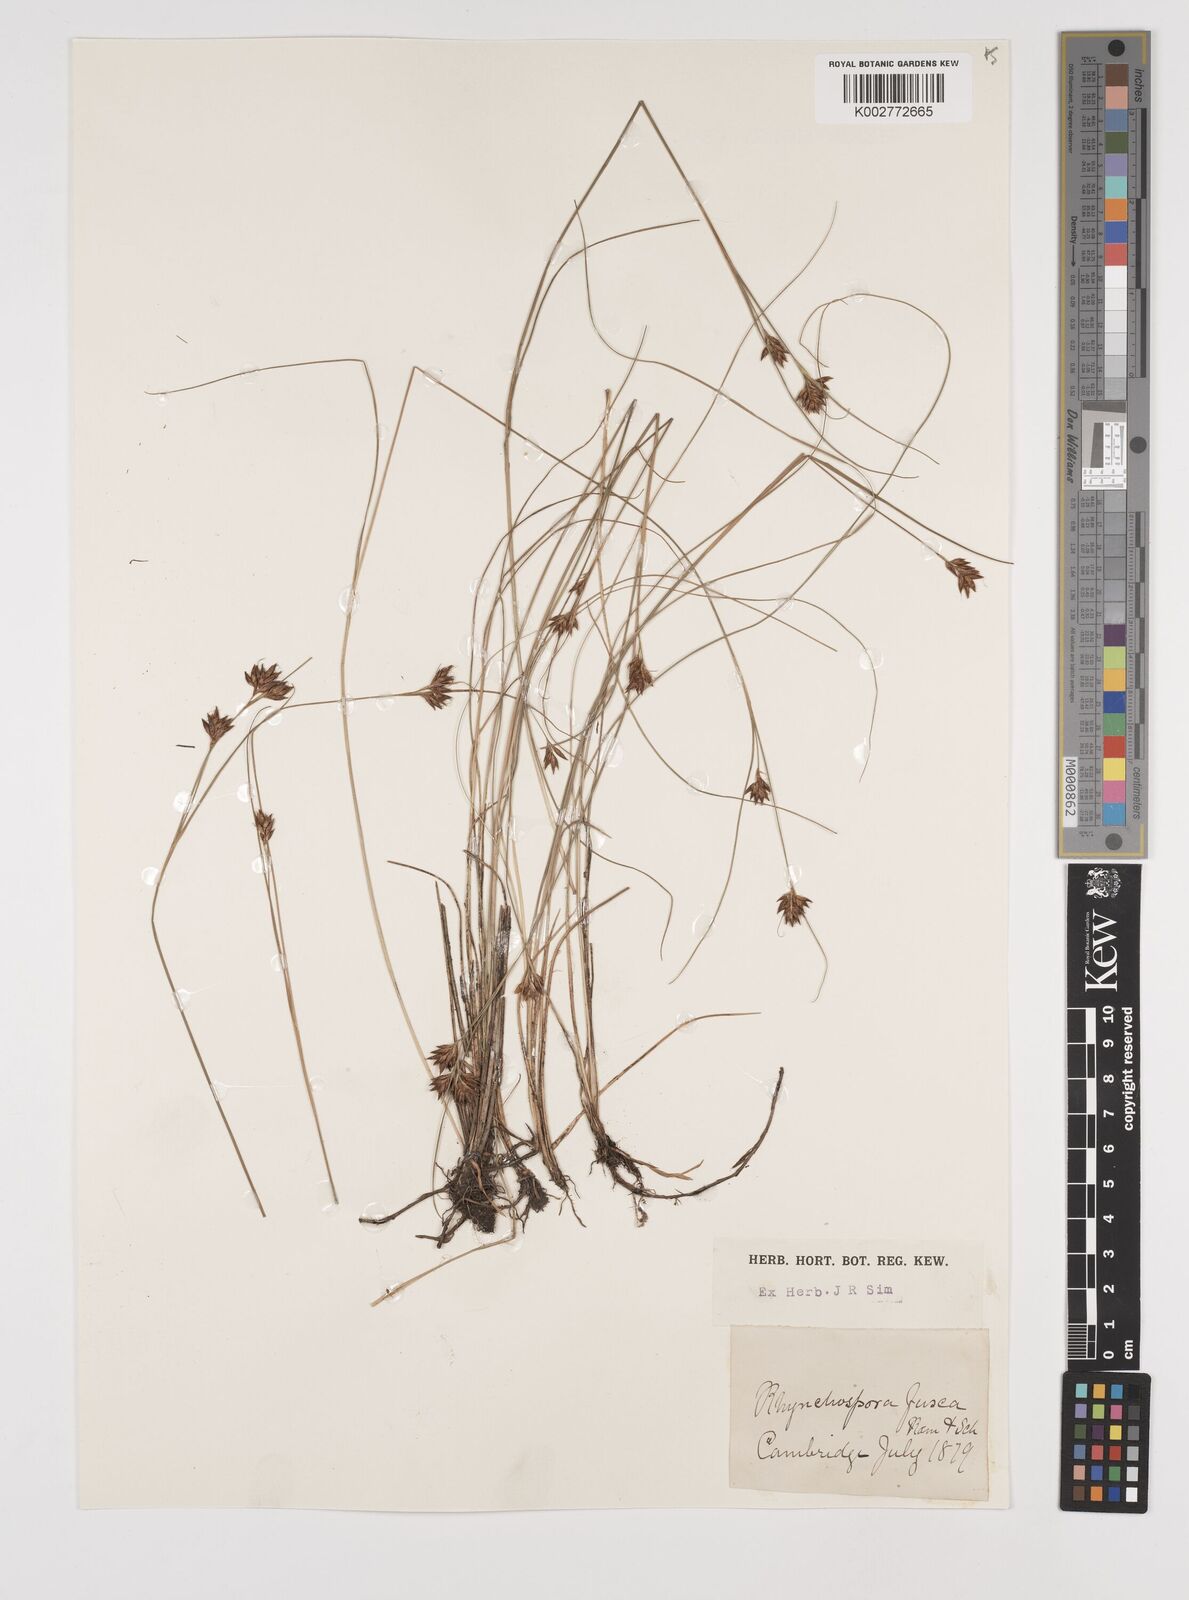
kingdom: Plantae
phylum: Tracheophyta
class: Liliopsida
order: Poales
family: Cyperaceae
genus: Rhynchospora
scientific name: Rhynchospora fusca
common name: Brown beak-sedge
